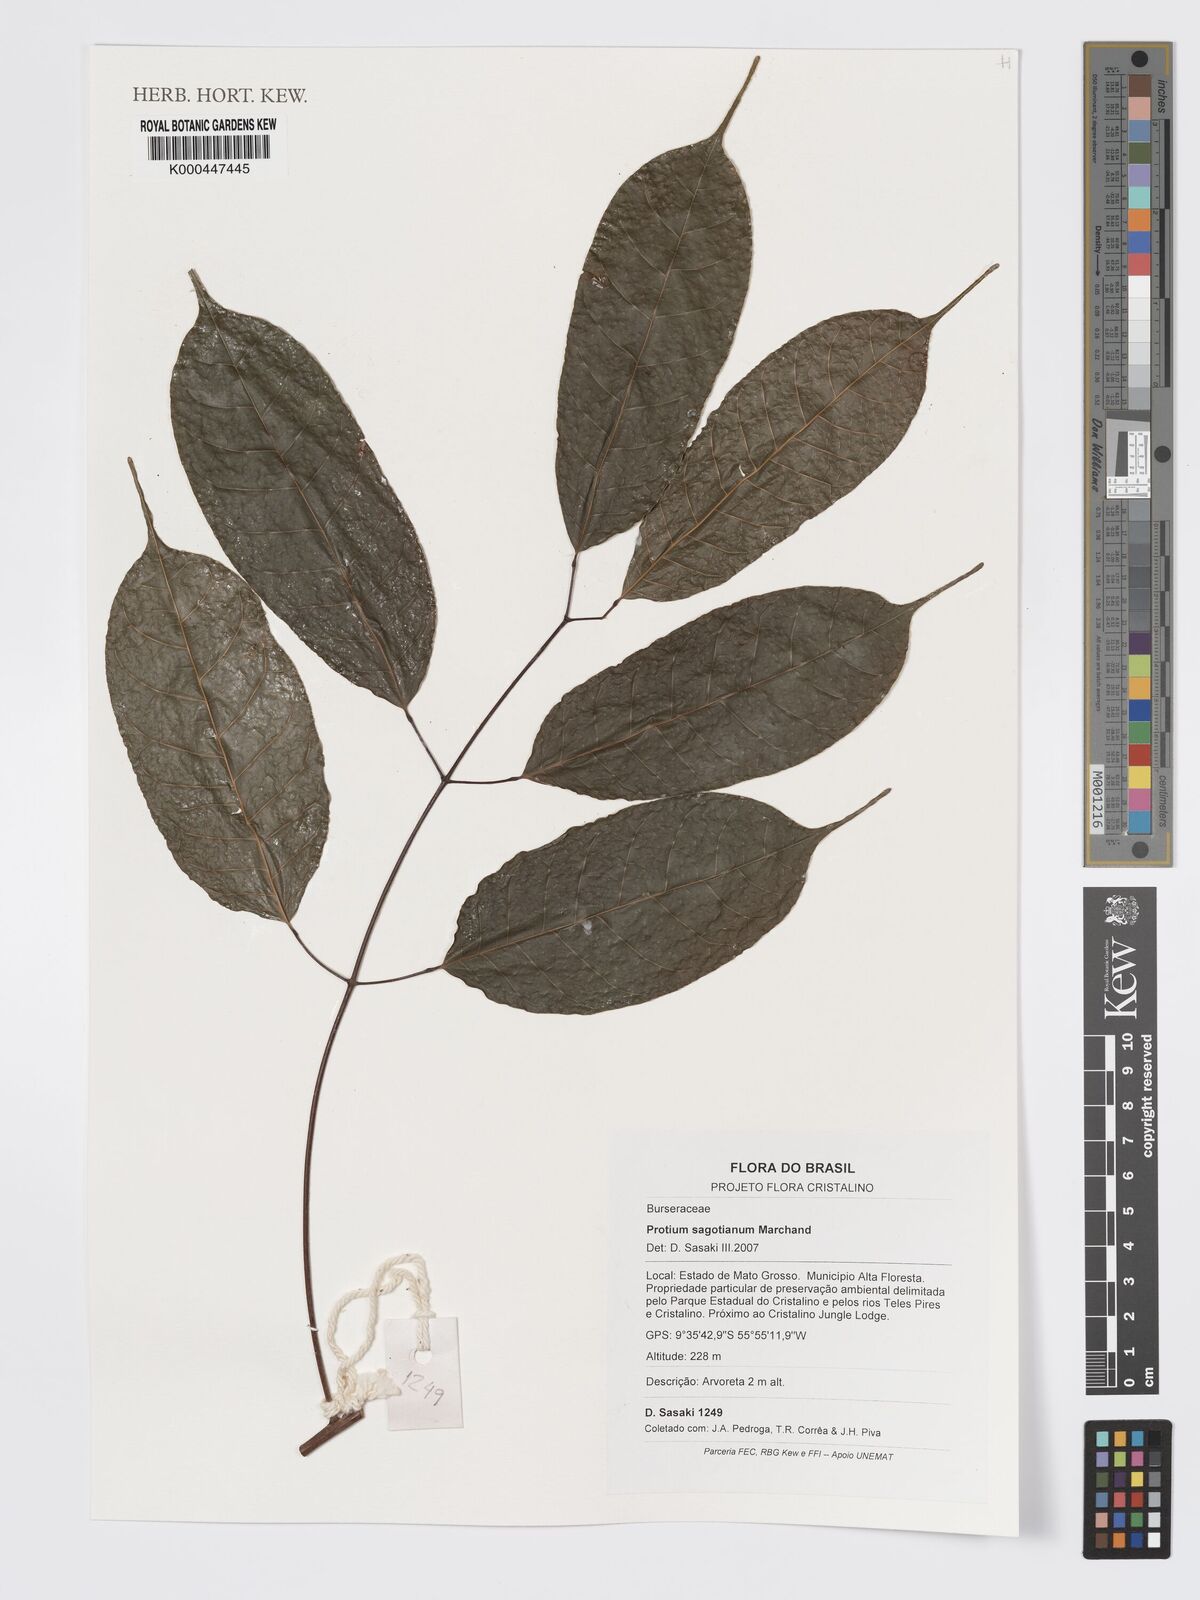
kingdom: Plantae
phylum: Tracheophyta
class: Magnoliopsida
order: Sapindales
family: Burseraceae
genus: Protium
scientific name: Protium sagotianum
